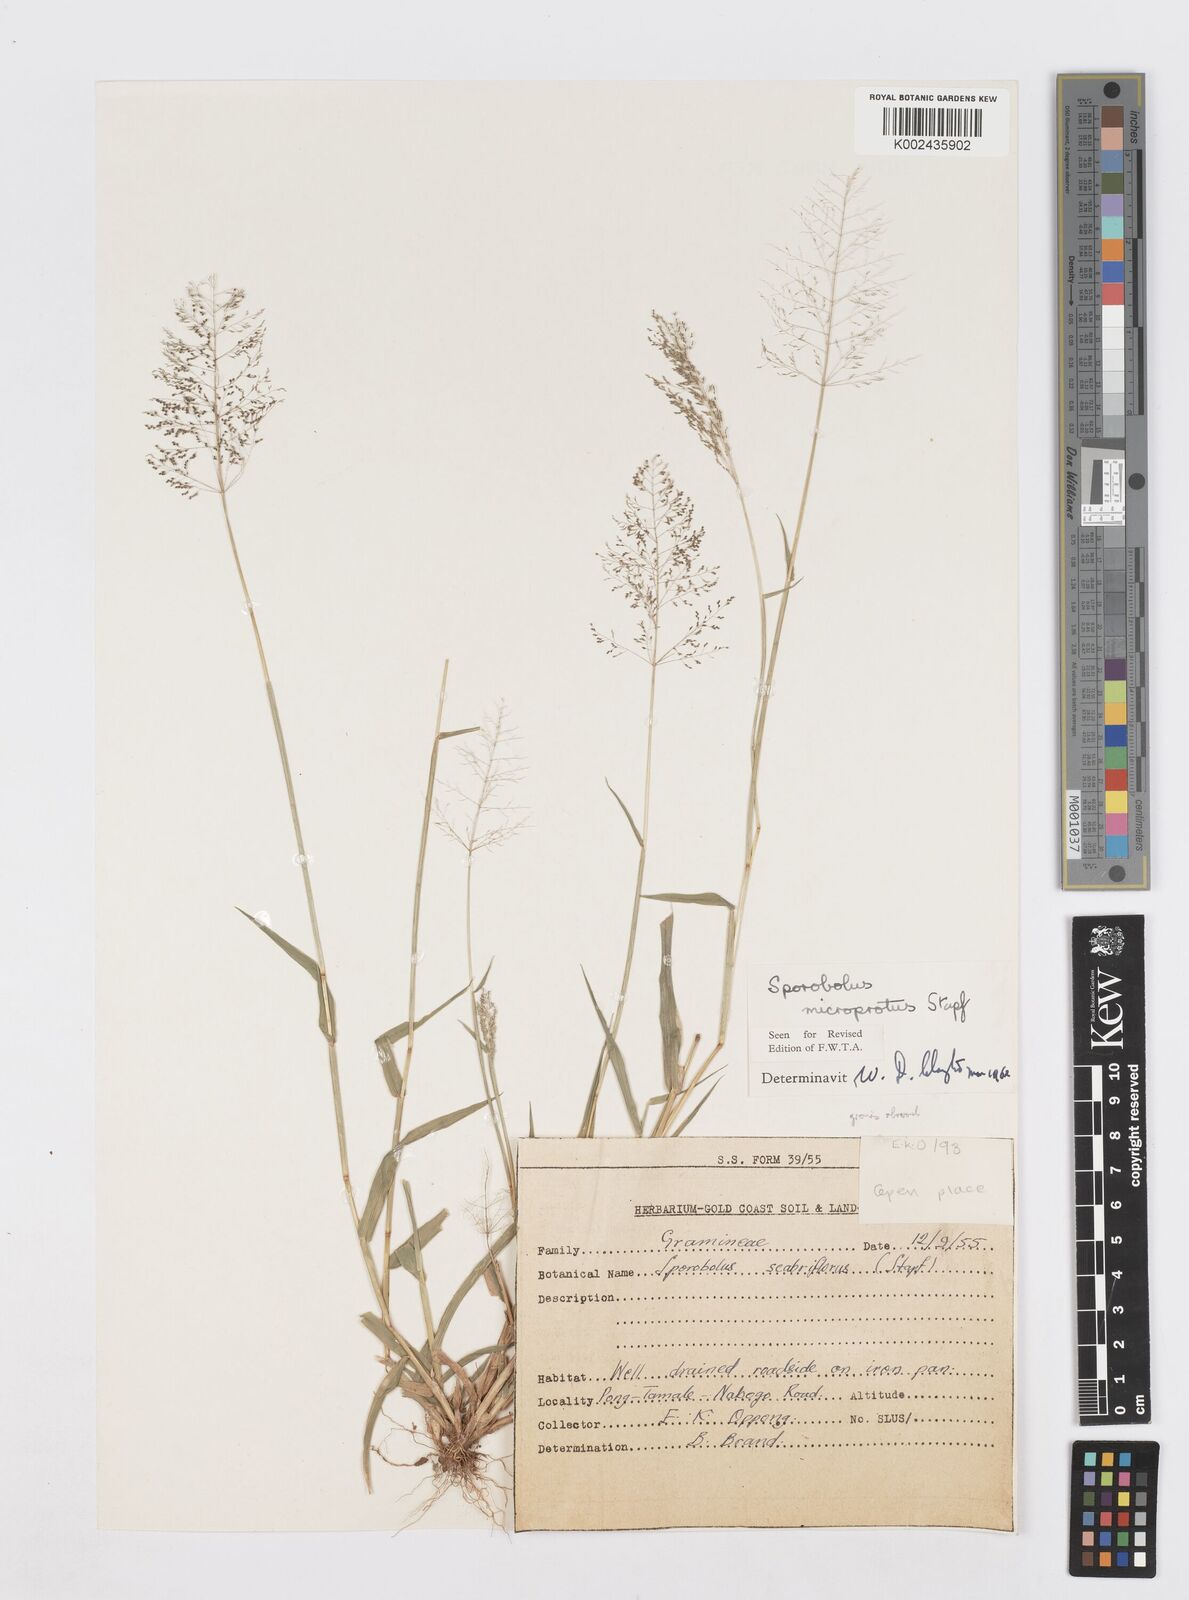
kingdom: Plantae
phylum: Tracheophyta
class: Liliopsida
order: Poales
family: Poaceae
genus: Sporobolus
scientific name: Sporobolus microprotus
